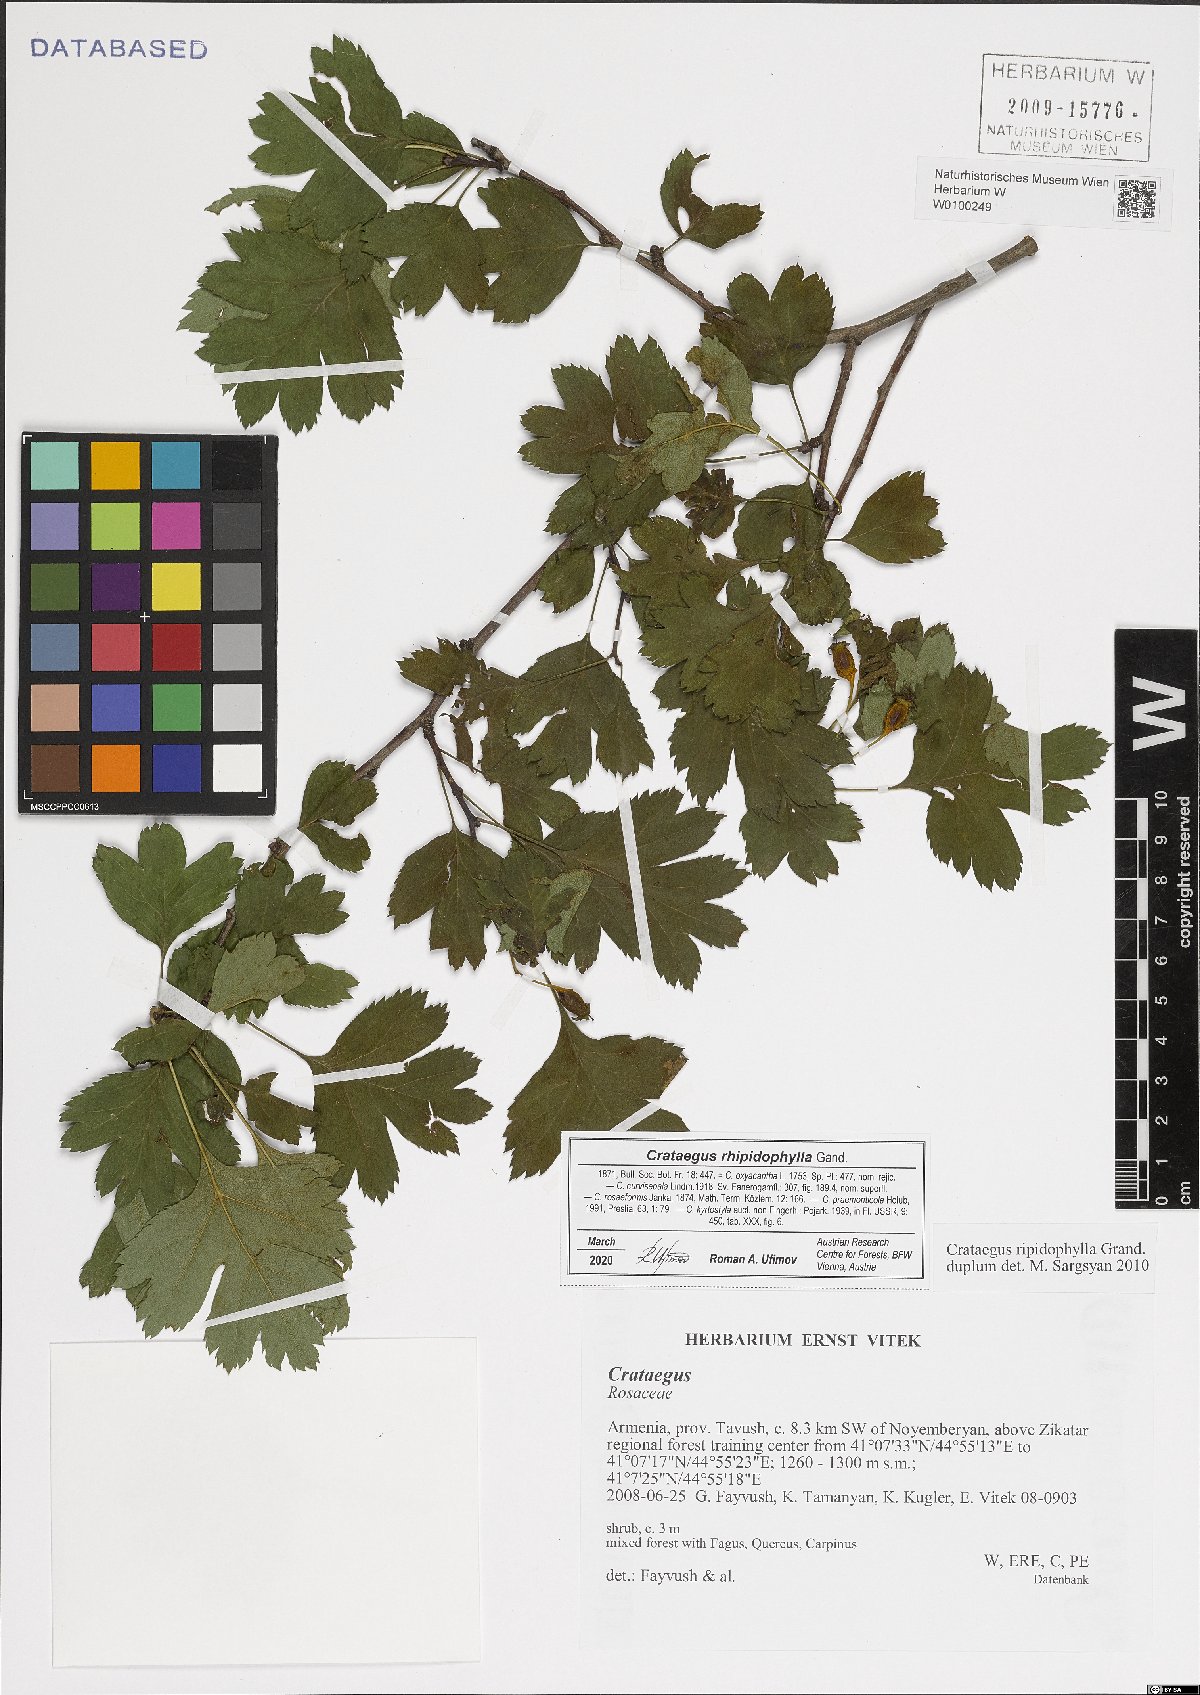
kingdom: Plantae
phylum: Tracheophyta
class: Magnoliopsida
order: Rosales
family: Rosaceae
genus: Crataegus
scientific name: Crataegus rhipidophylla
